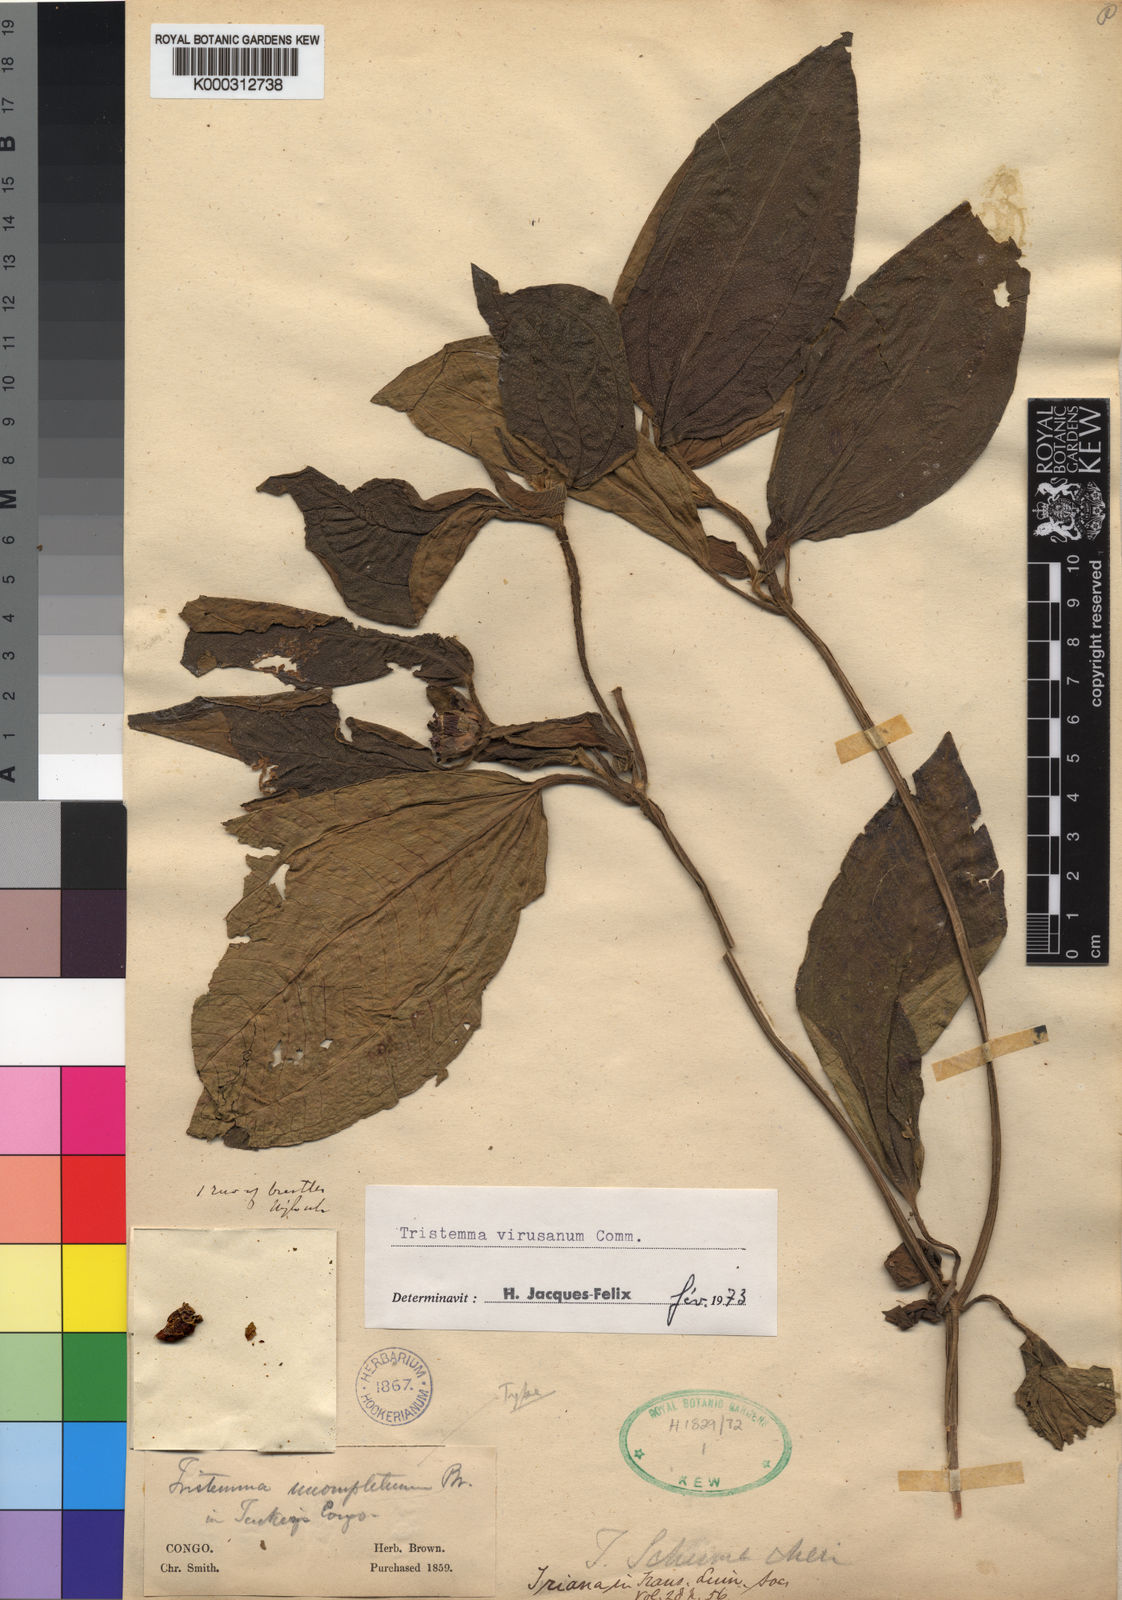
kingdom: Plantae
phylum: Tracheophyta
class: Magnoliopsida
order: Myrtales
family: Melastomataceae
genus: Tristemma
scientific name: Tristemma mauritianum
